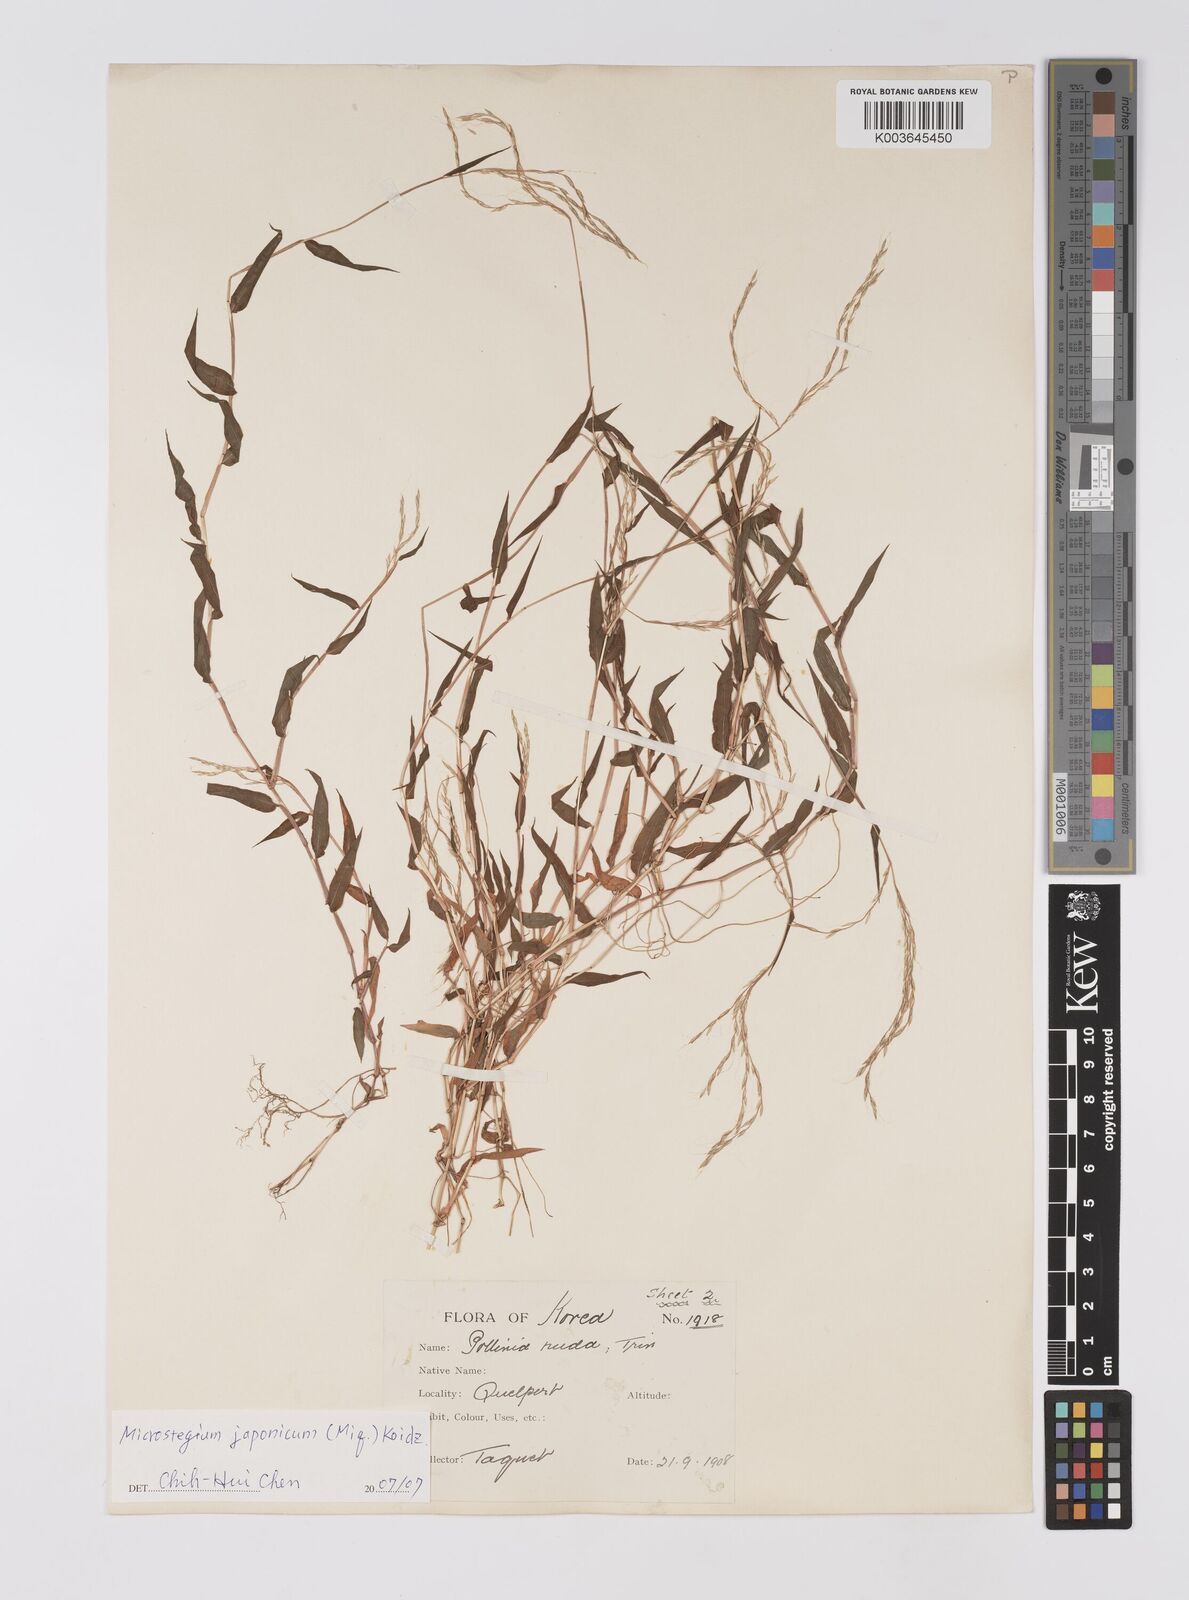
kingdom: Plantae
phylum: Tracheophyta
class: Liliopsida
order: Poales
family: Poaceae
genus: Microstegium
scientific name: Microstegium japonicum
